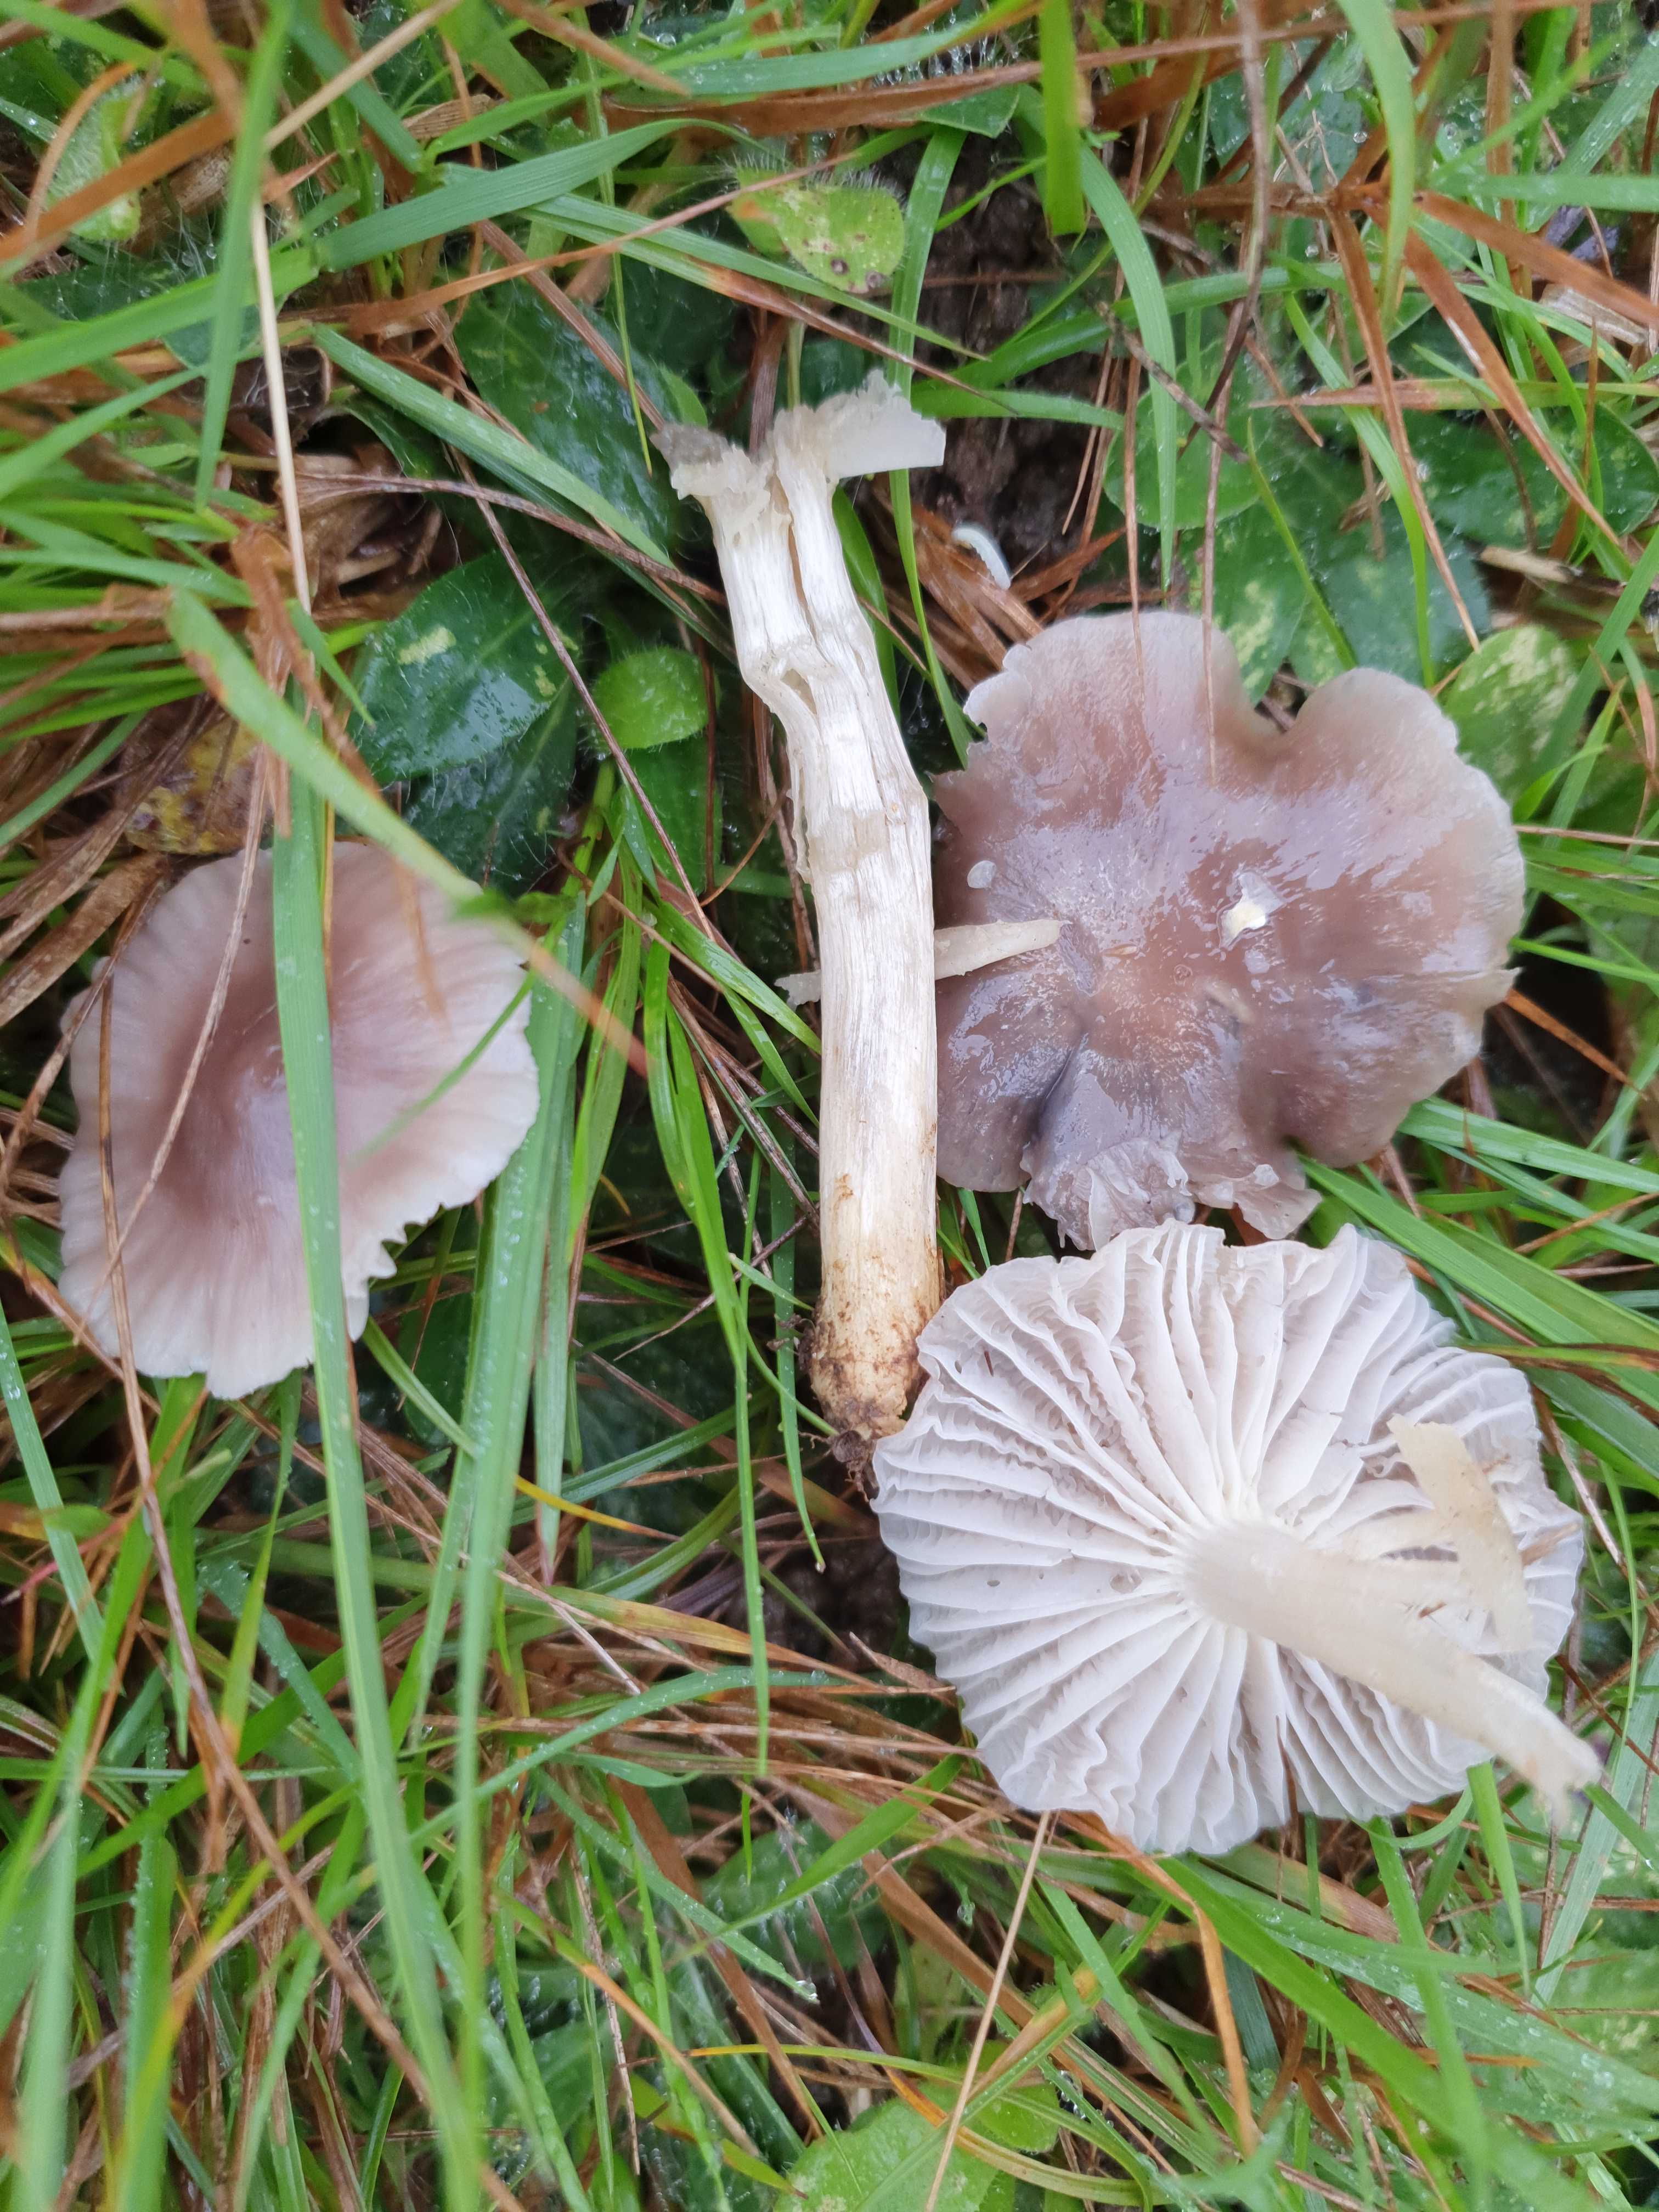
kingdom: Fungi
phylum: Basidiomycota
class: Agaricomycetes
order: Agaricales
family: Hygrophoraceae
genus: Cuphophyllus
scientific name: Cuphophyllus flavipes
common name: gulfodet vokshat
